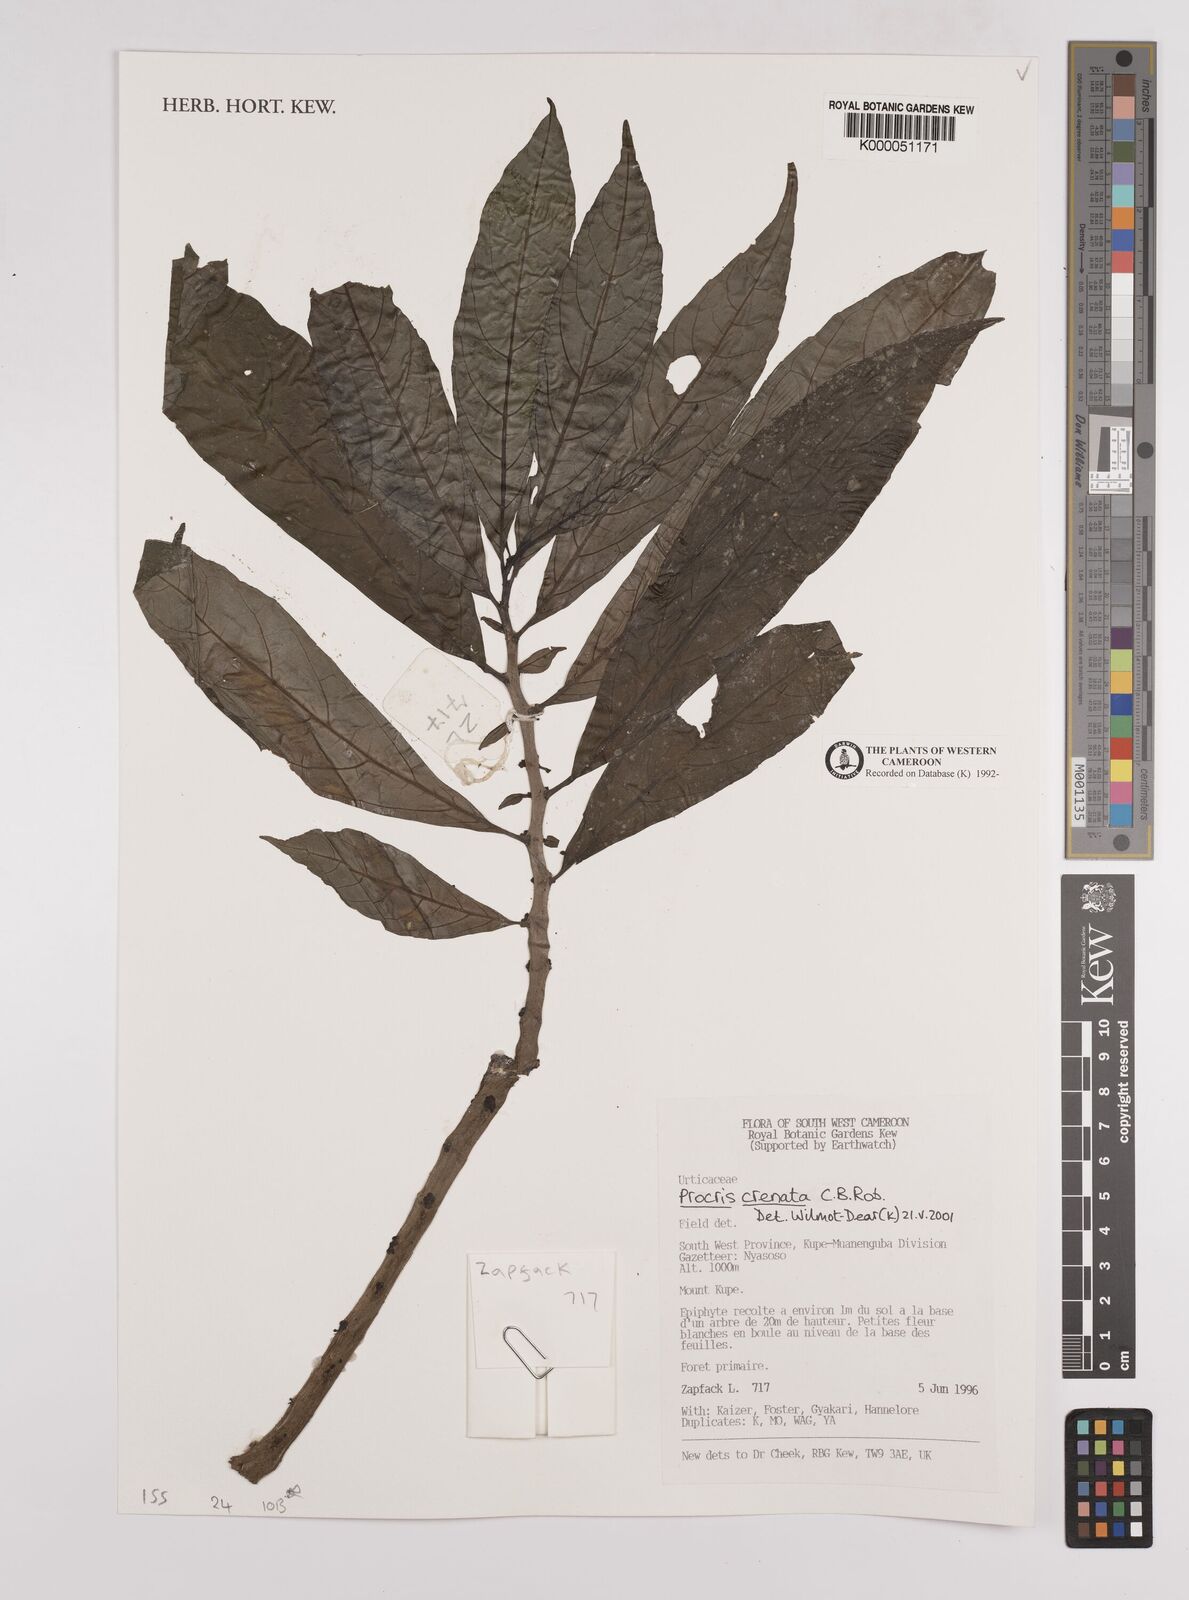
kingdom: Plantae
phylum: Tracheophyta
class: Magnoliopsida
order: Rosales
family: Urticaceae
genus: Procris
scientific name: Procris crenata
